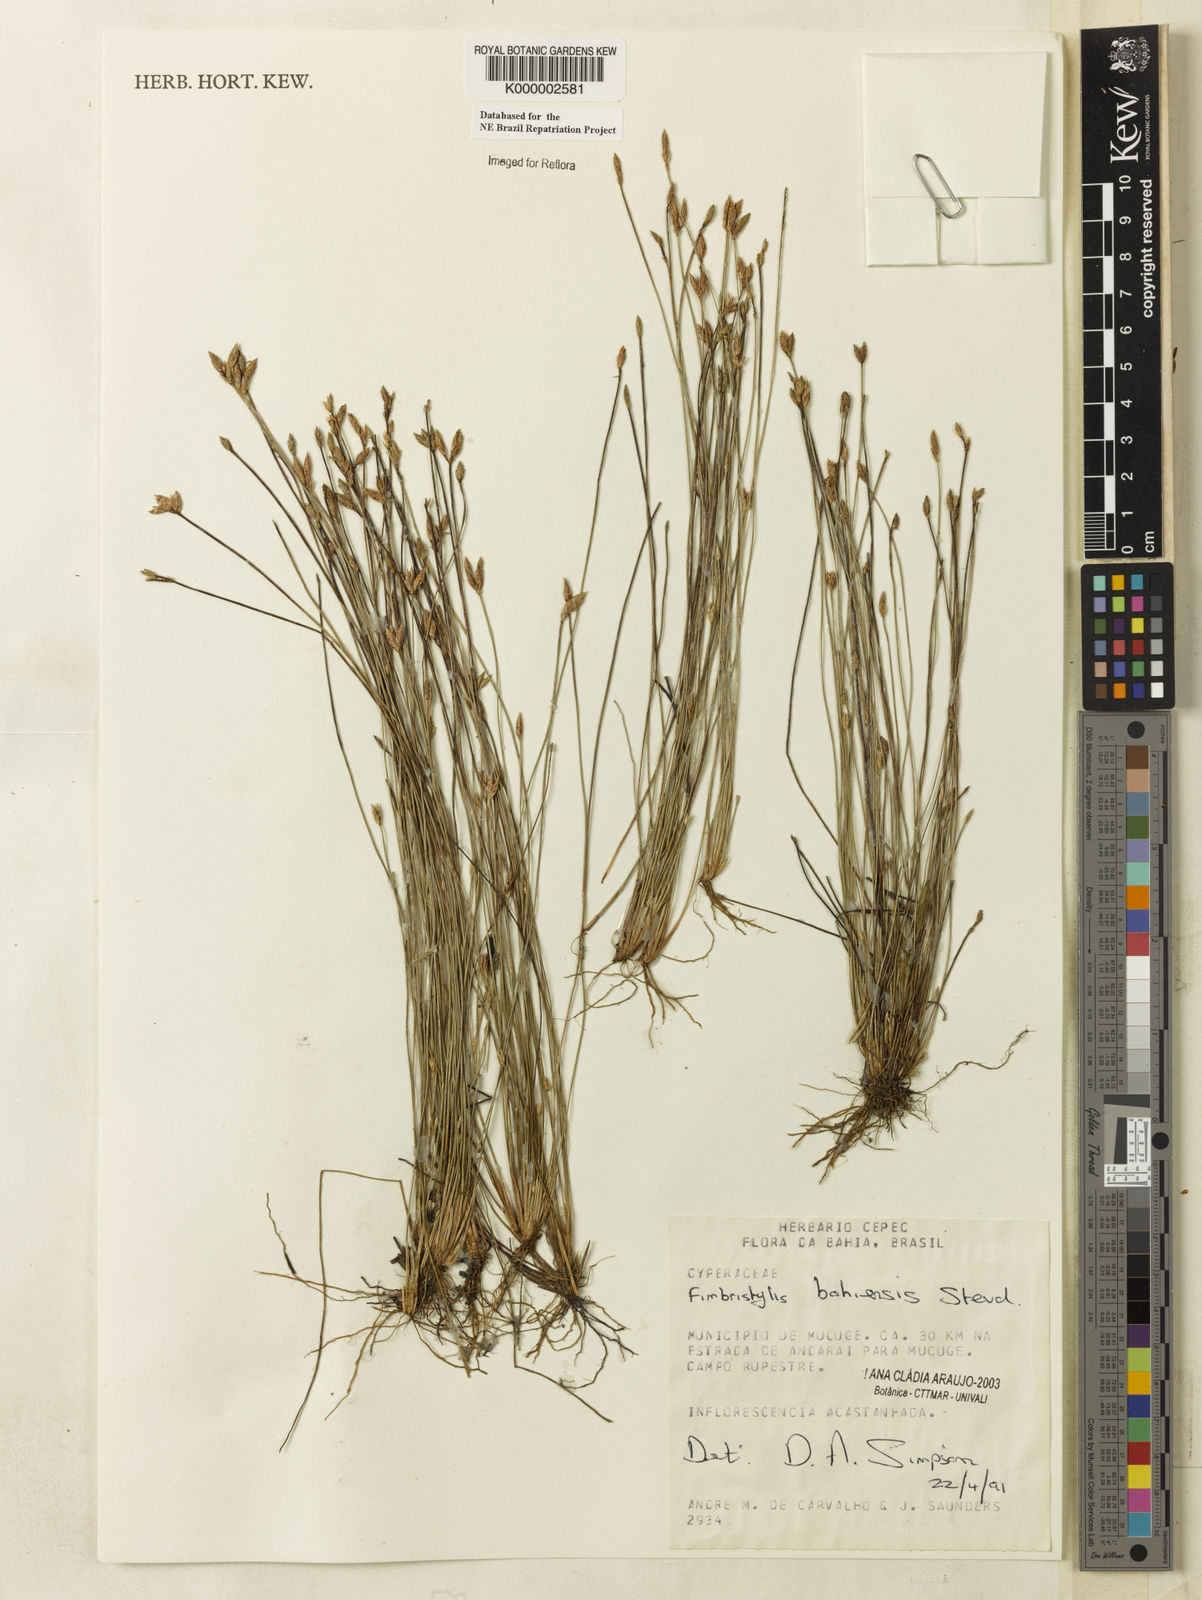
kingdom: Plantae
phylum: Tracheophyta
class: Liliopsida
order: Poales
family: Cyperaceae
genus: Fimbristylis
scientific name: Fimbristylis bahiensis
